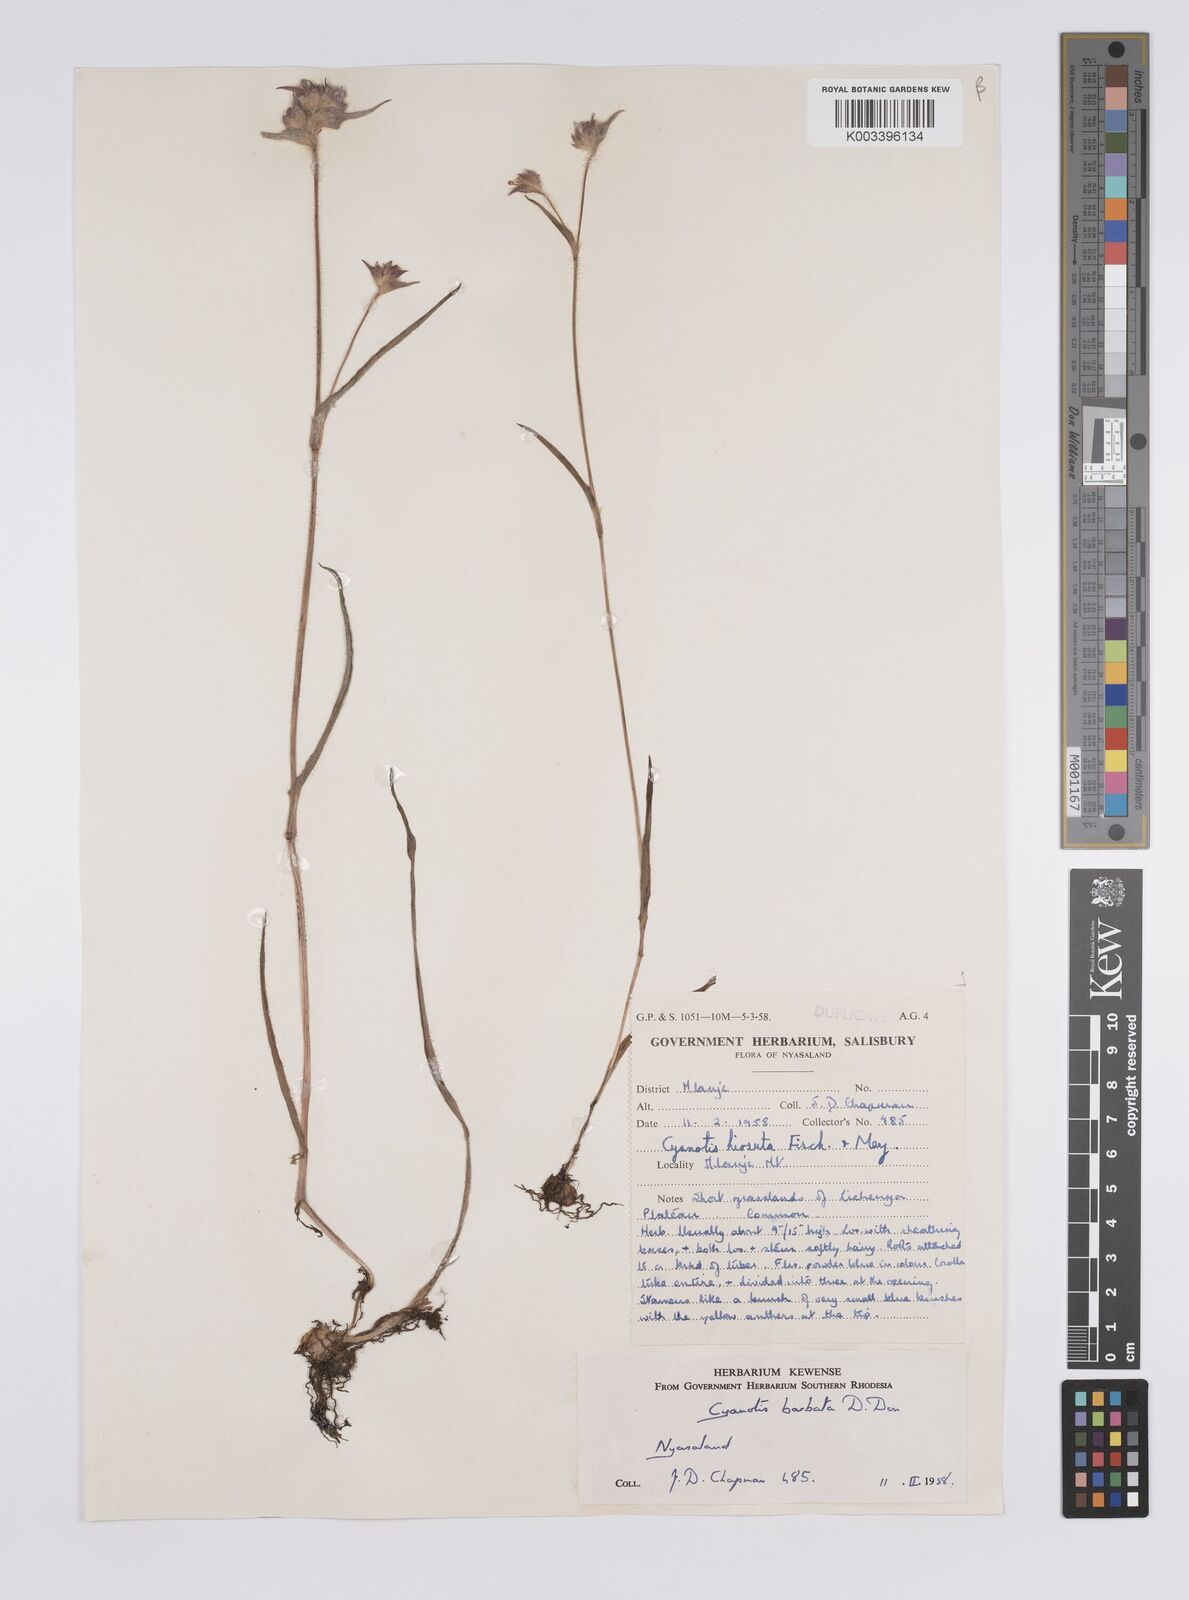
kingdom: Plantae
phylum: Tracheophyta
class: Liliopsida
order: Commelinales
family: Commelinaceae
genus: Cyanotis
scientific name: Cyanotis vaga
